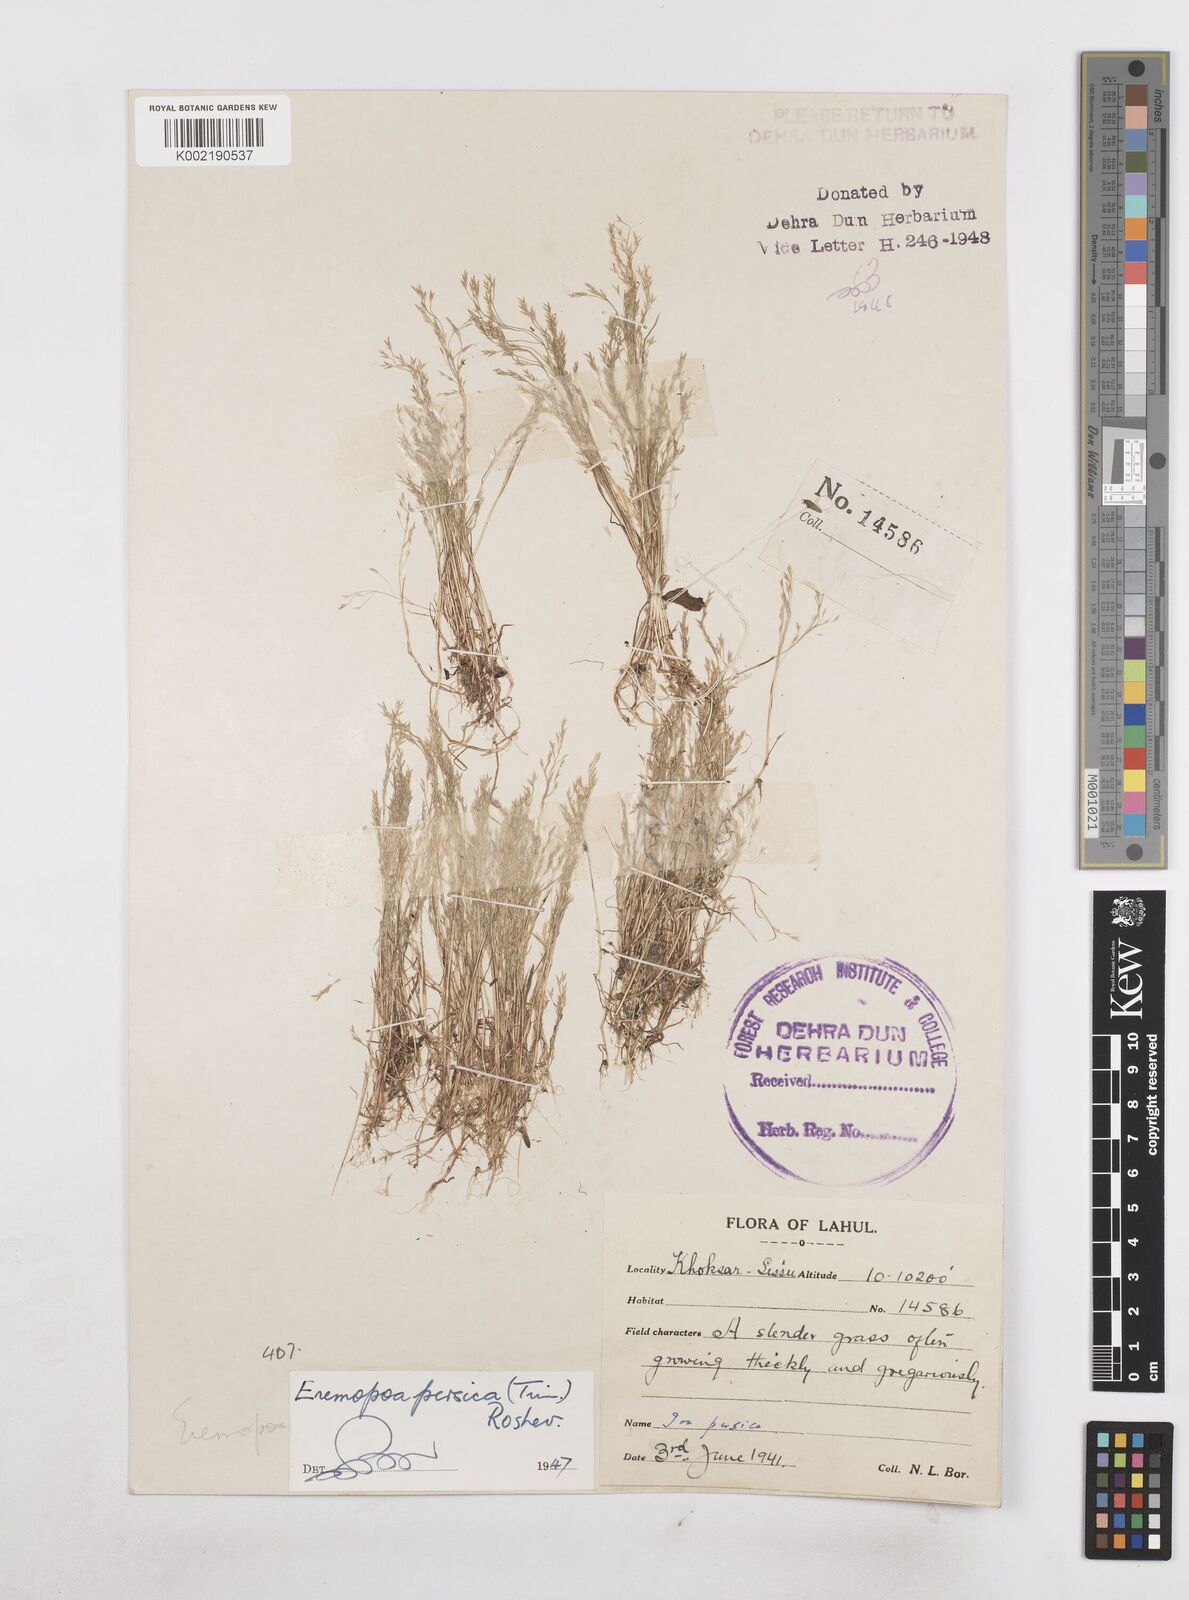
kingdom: Plantae
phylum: Tracheophyta
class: Liliopsida
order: Poales
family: Poaceae
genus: Poa
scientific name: Poa diaphora
